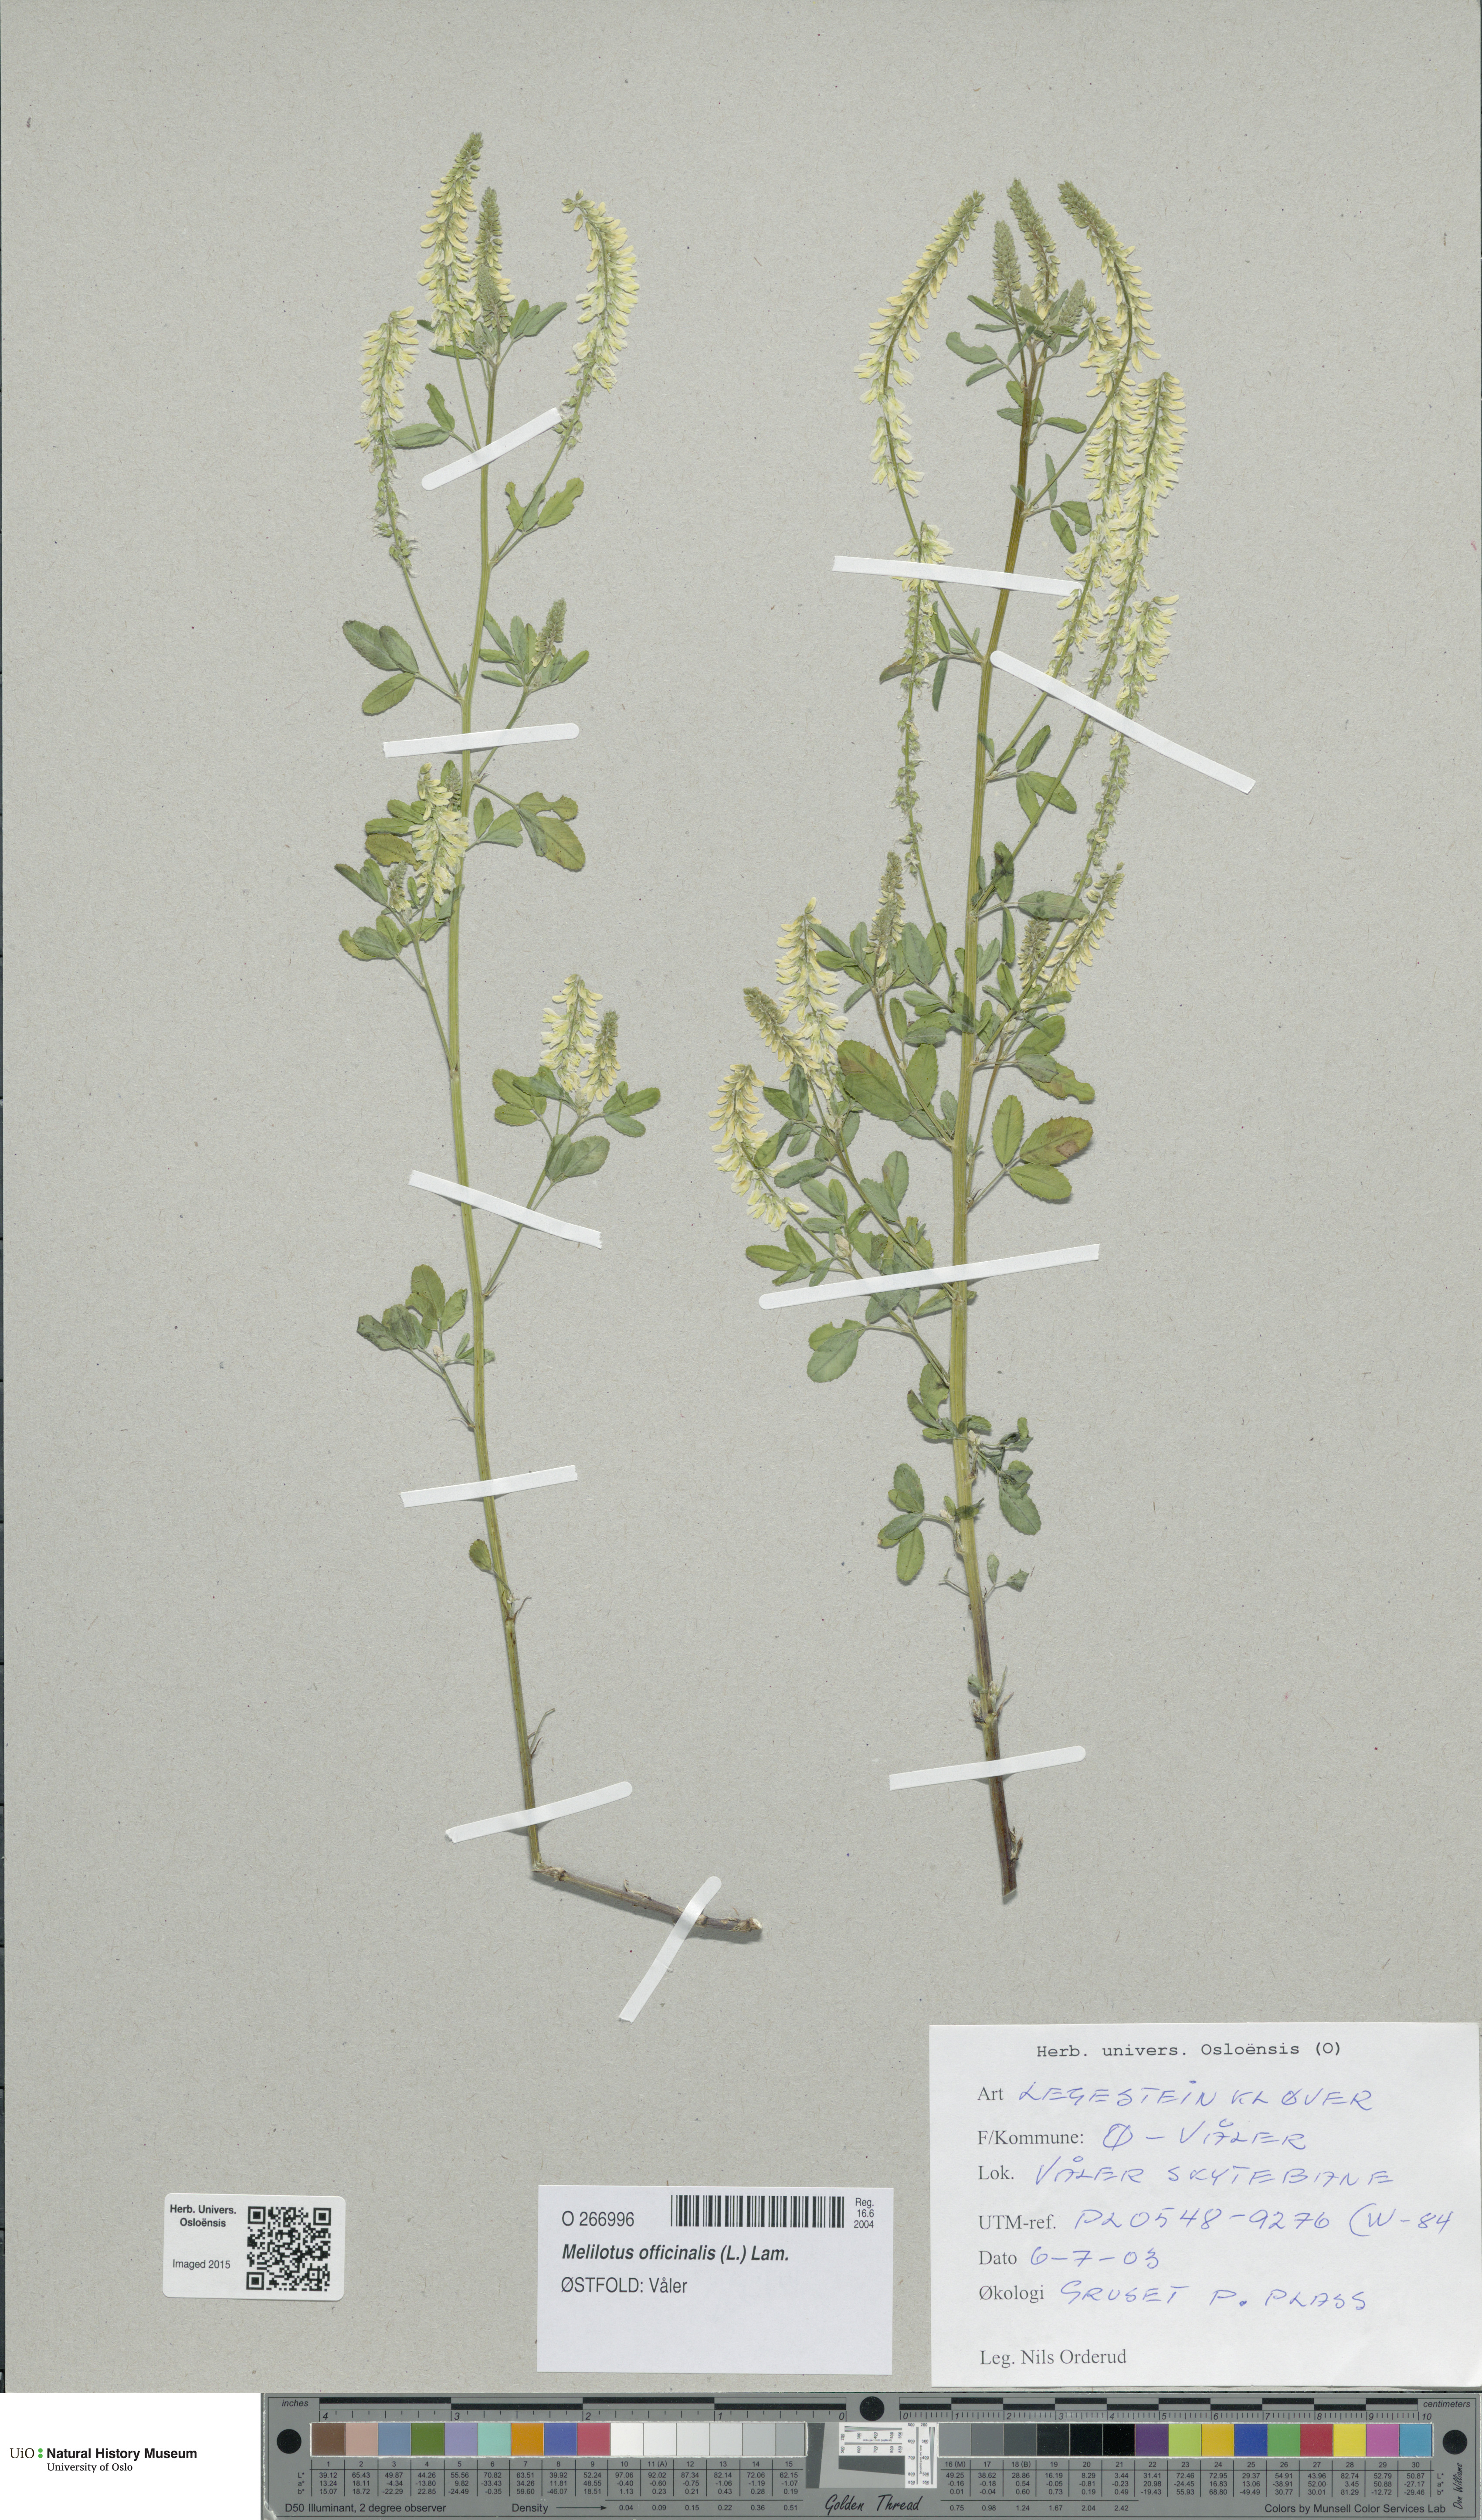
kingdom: Plantae
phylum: Tracheophyta
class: Magnoliopsida
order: Fabales
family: Fabaceae
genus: Melilotus
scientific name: Melilotus officinalis
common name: Sweetclover
